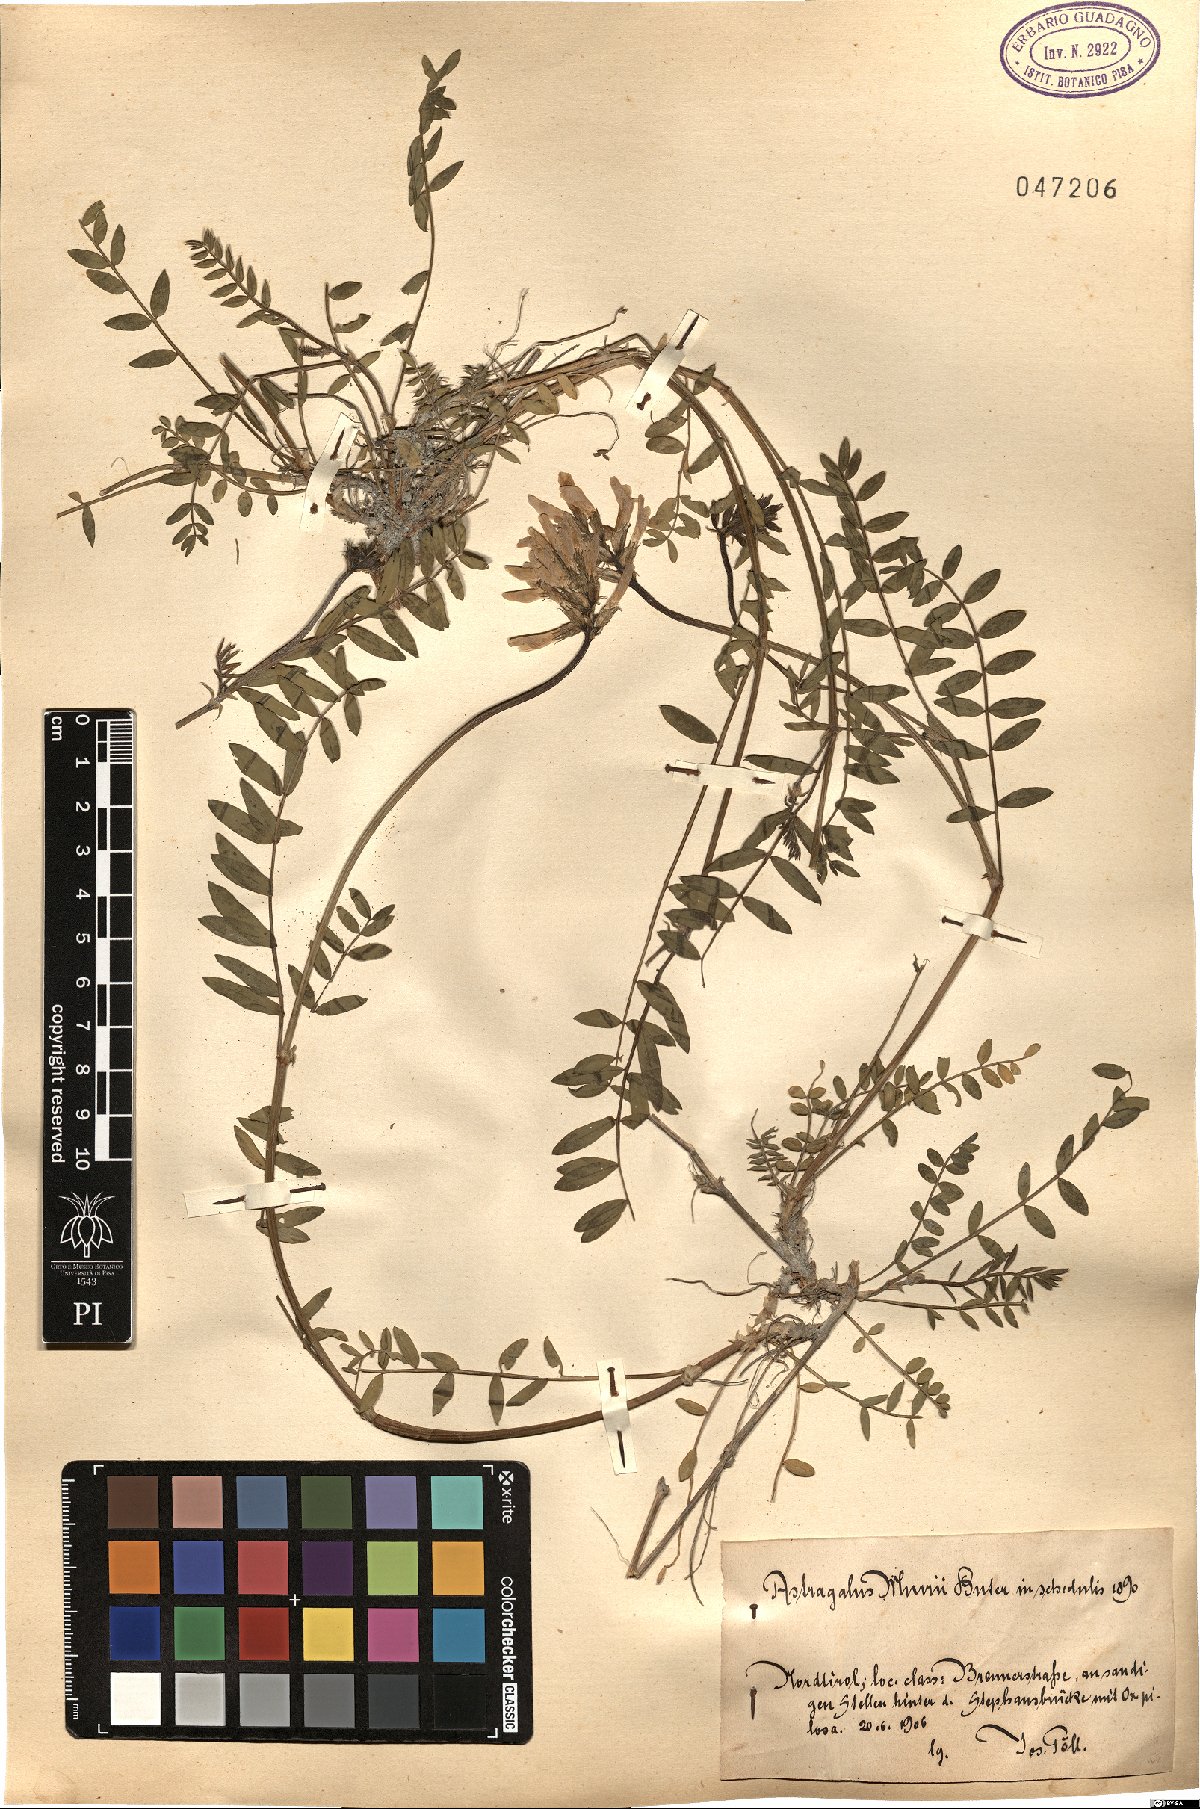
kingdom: Plantae
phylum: Tracheophyta
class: Magnoliopsida
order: Fabales
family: Fabaceae
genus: Astragalus
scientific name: Astragalus leontinus
